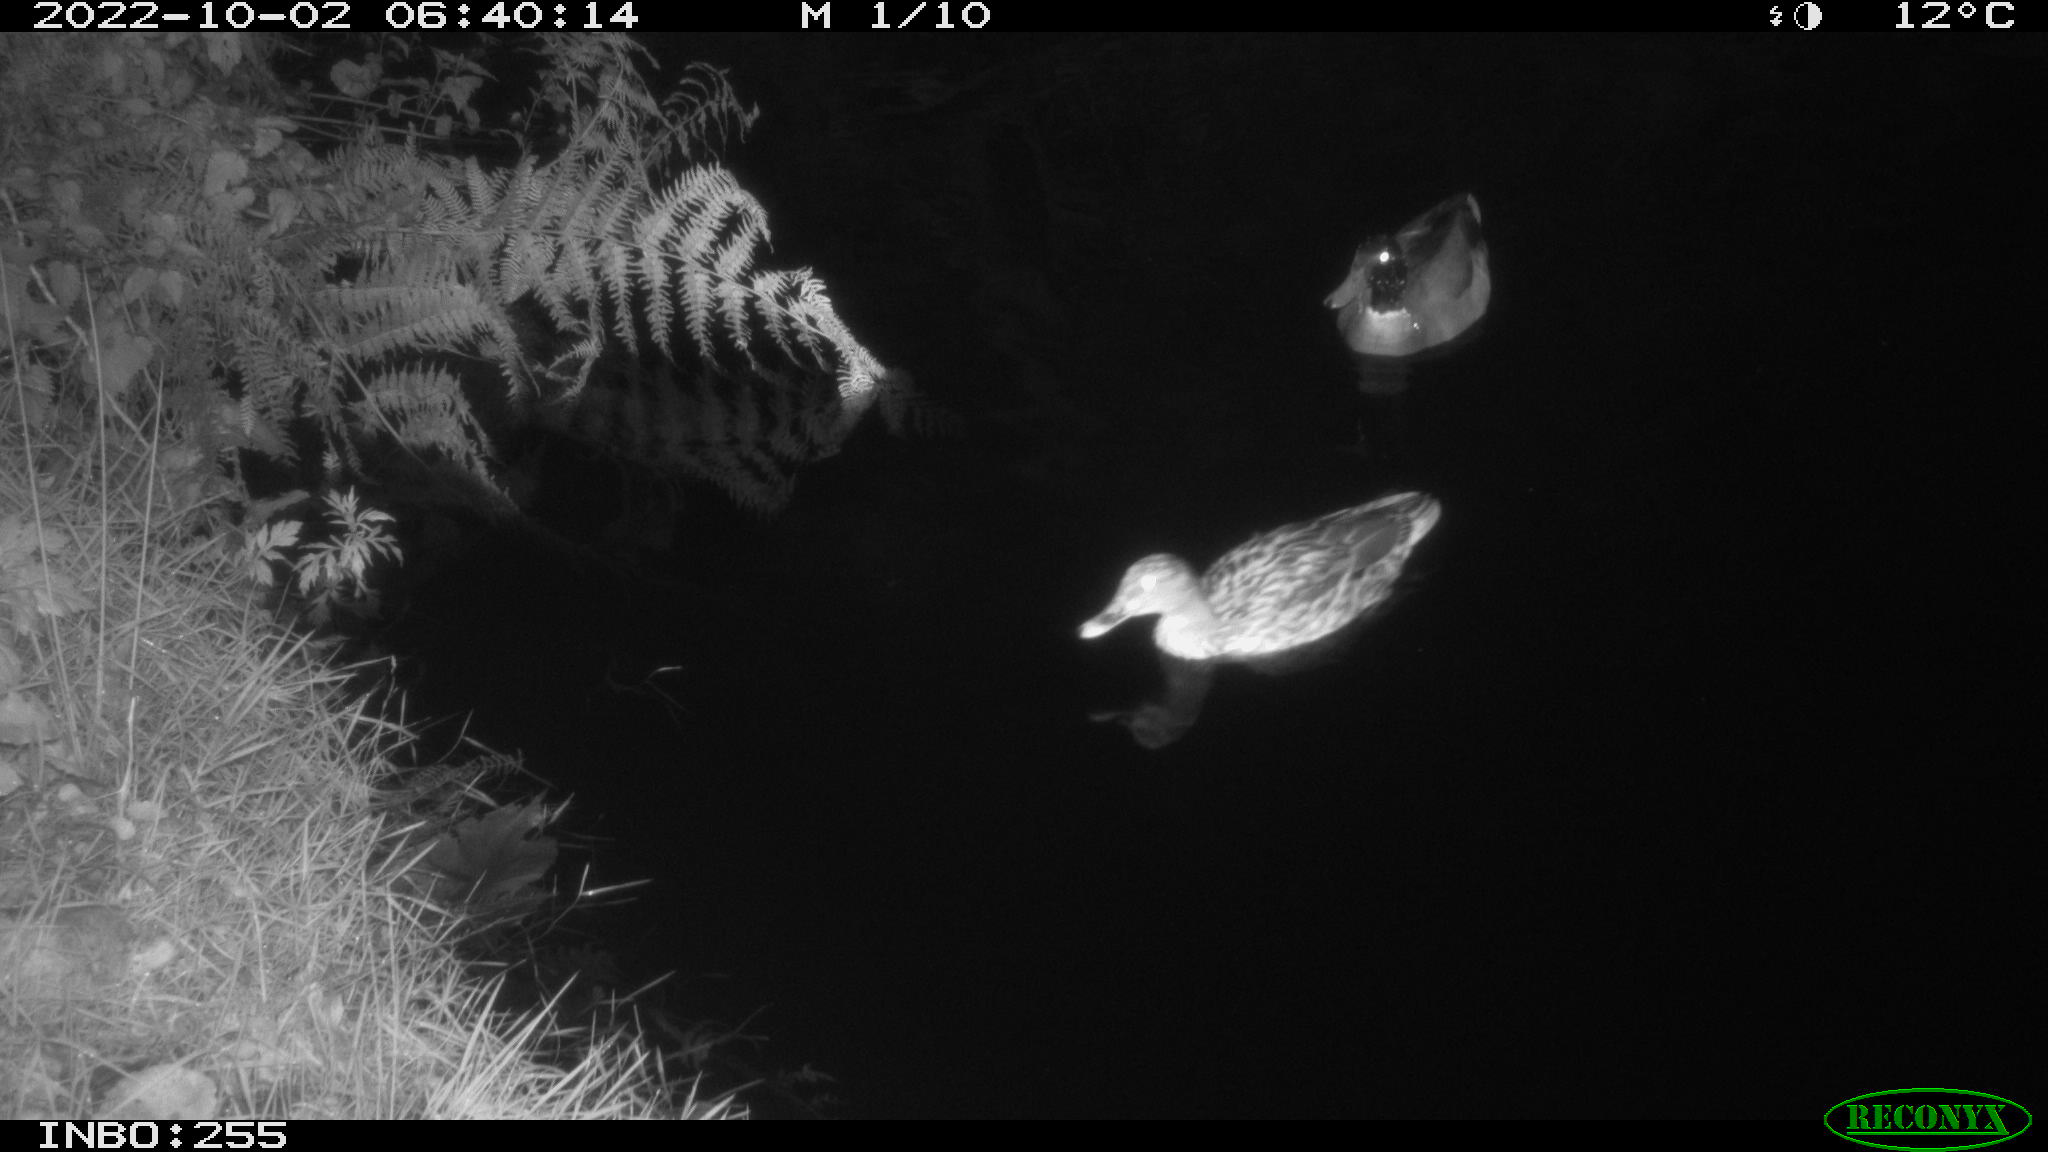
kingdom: Animalia
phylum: Chordata
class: Aves
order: Anseriformes
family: Anatidae
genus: Anas
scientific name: Anas platyrhynchos
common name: Mallard
